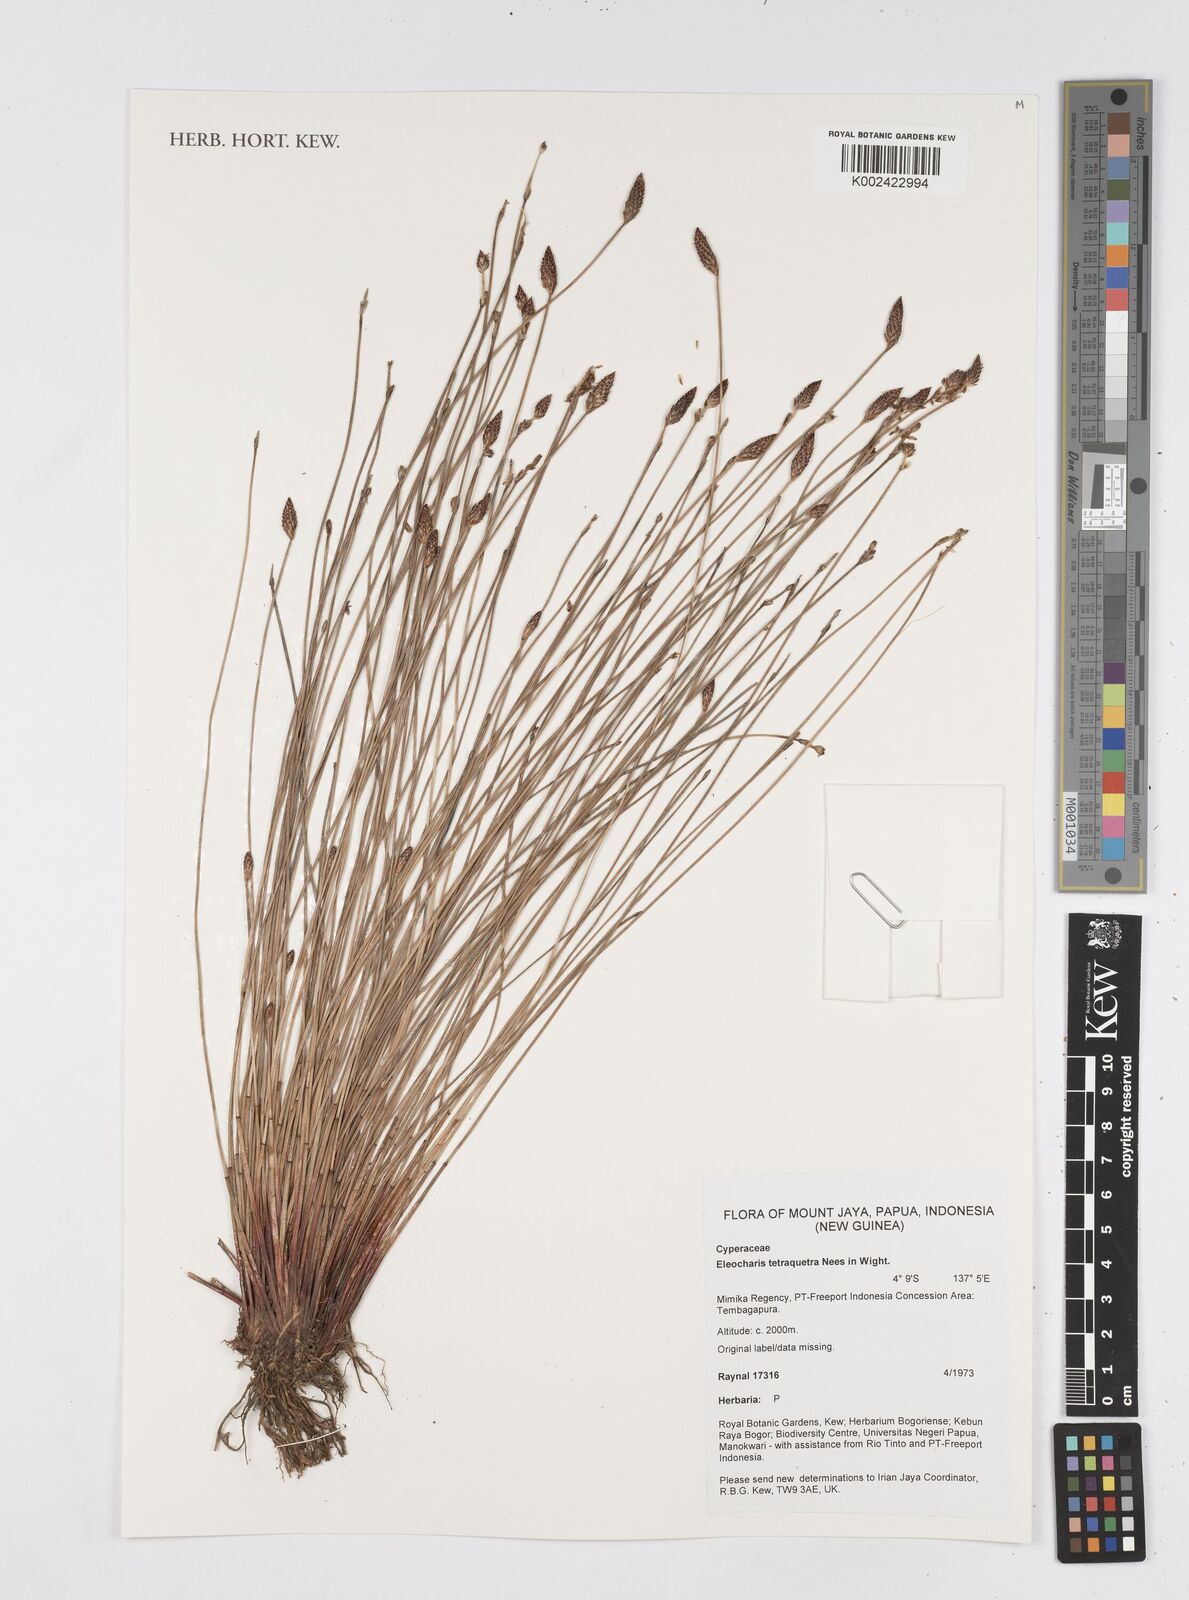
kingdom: Plantae
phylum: Tracheophyta
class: Liliopsida
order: Poales
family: Cyperaceae
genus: Eleocharis
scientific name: Eleocharis tetraquetra
